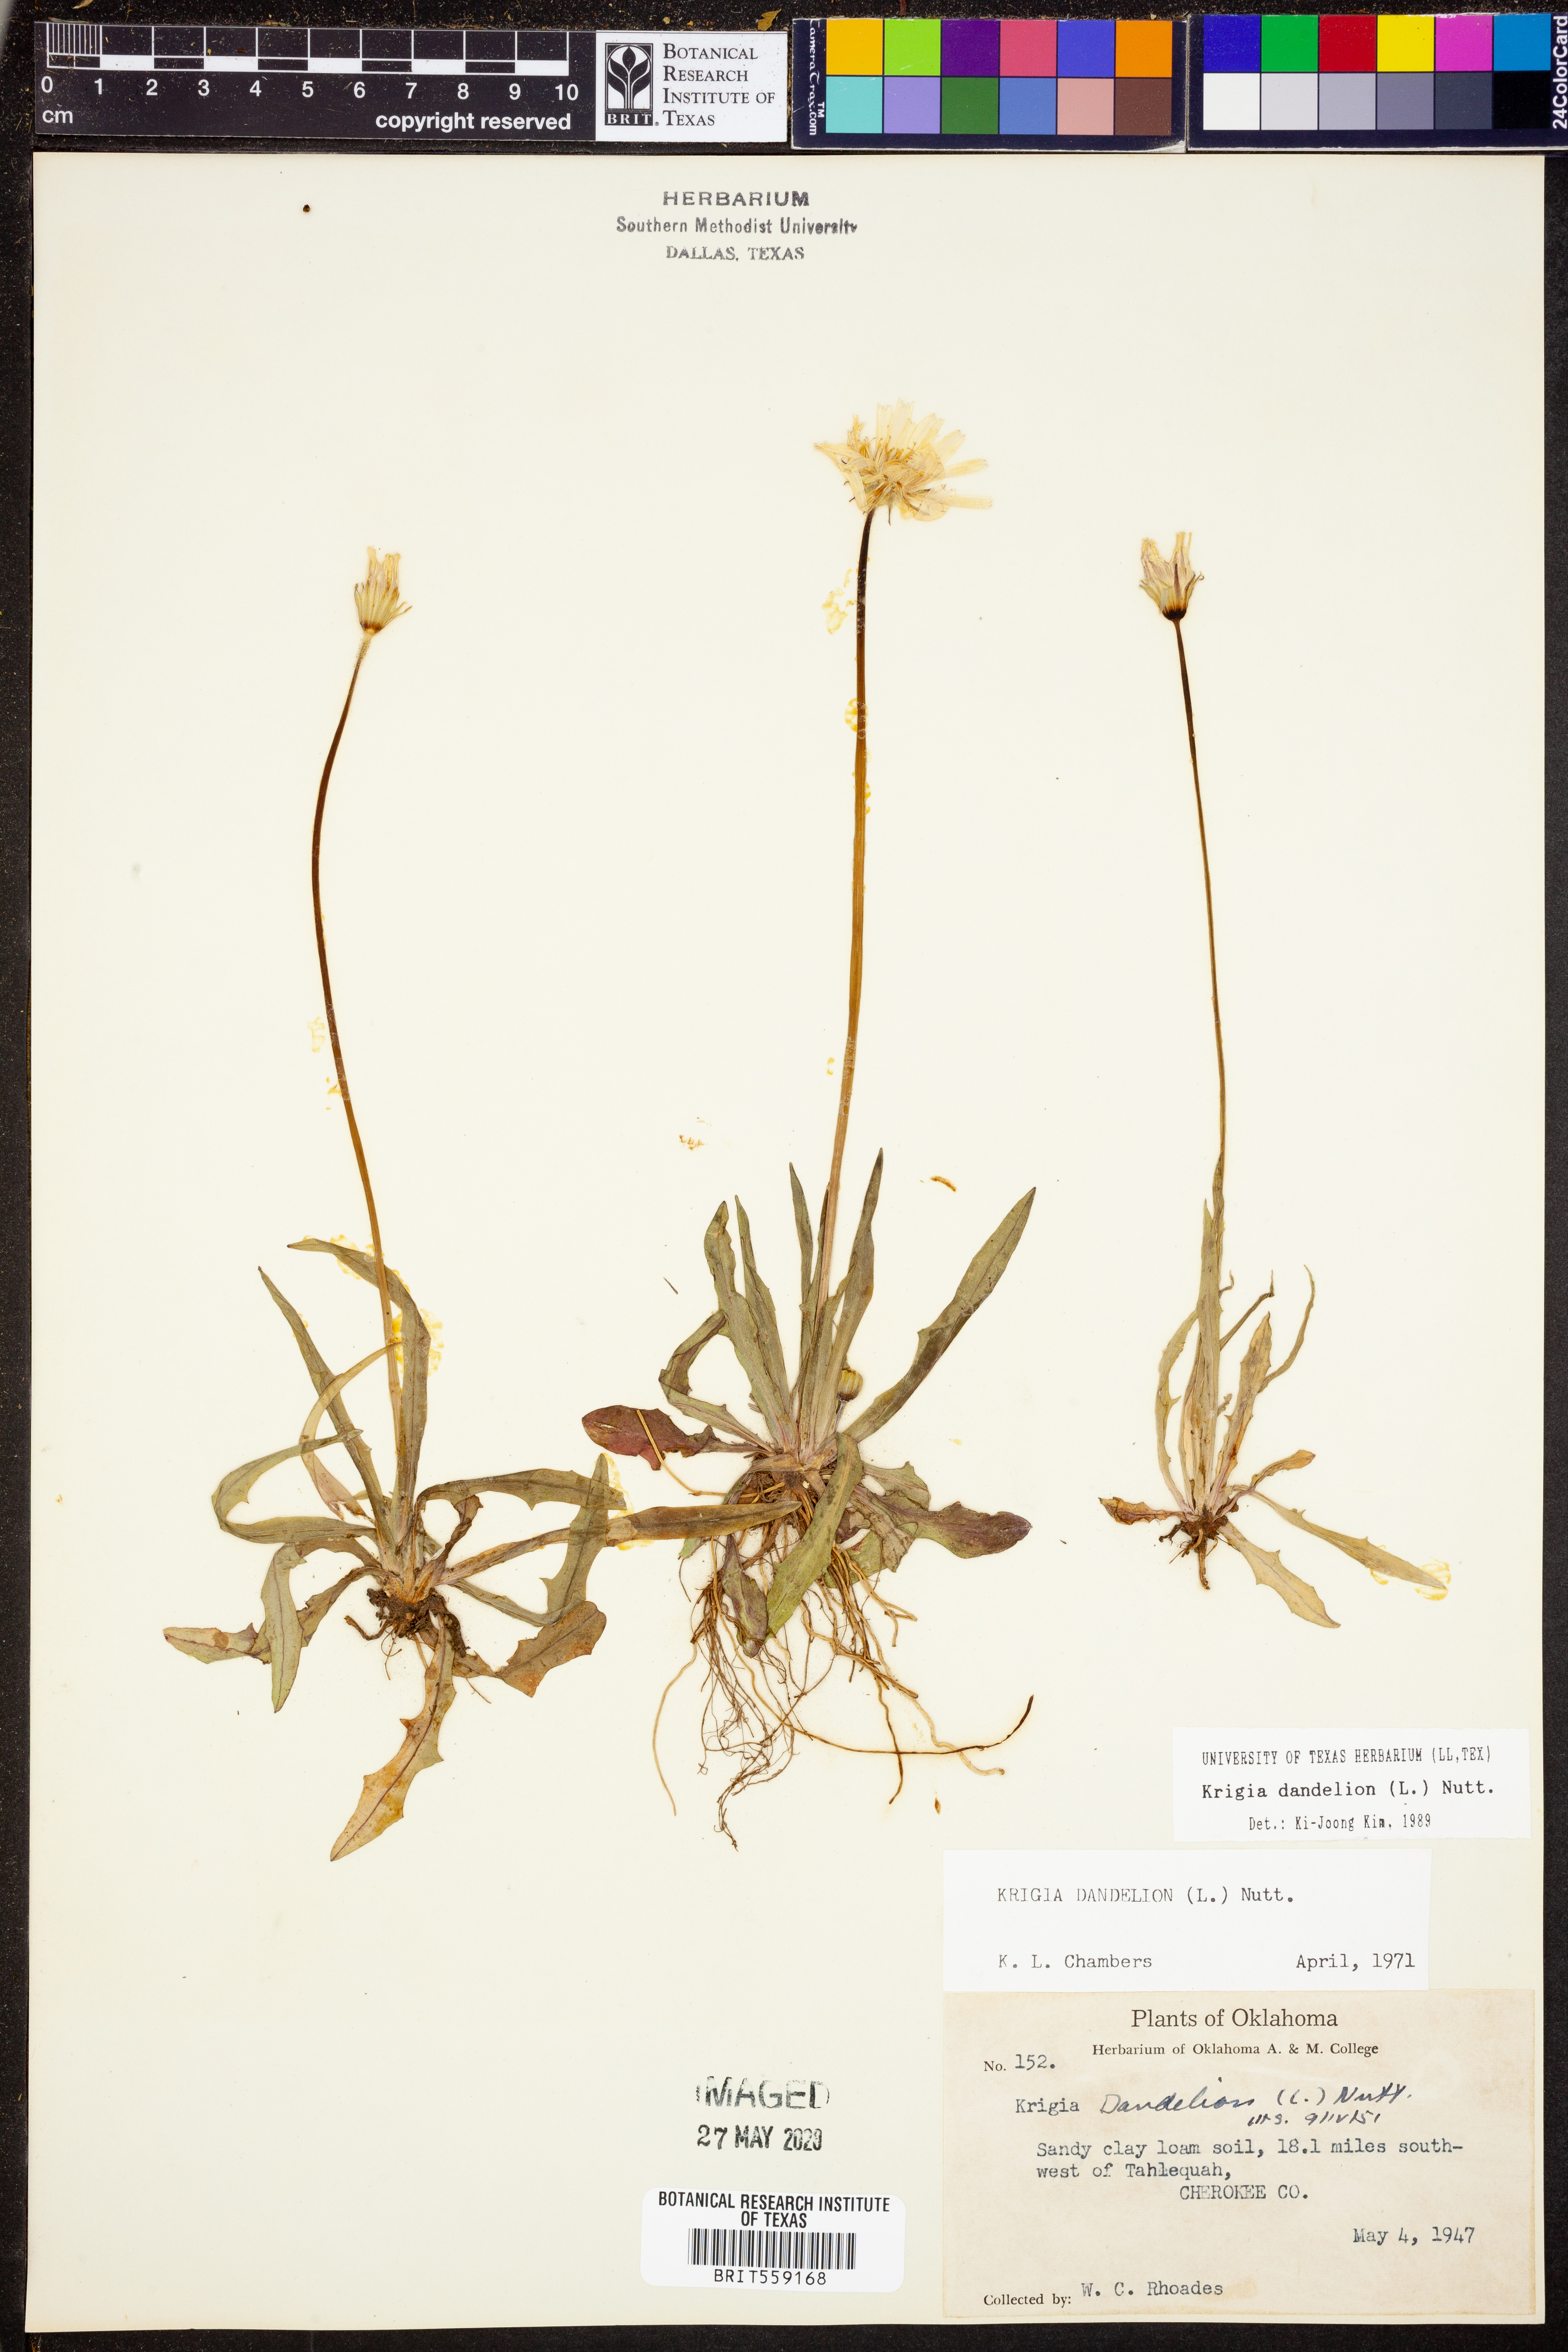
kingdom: Plantae
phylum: Tracheophyta
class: Magnoliopsida
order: Asterales
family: Asteraceae
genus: Krigia
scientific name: Krigia dandelion
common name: Colonial dwarf-dandelion
